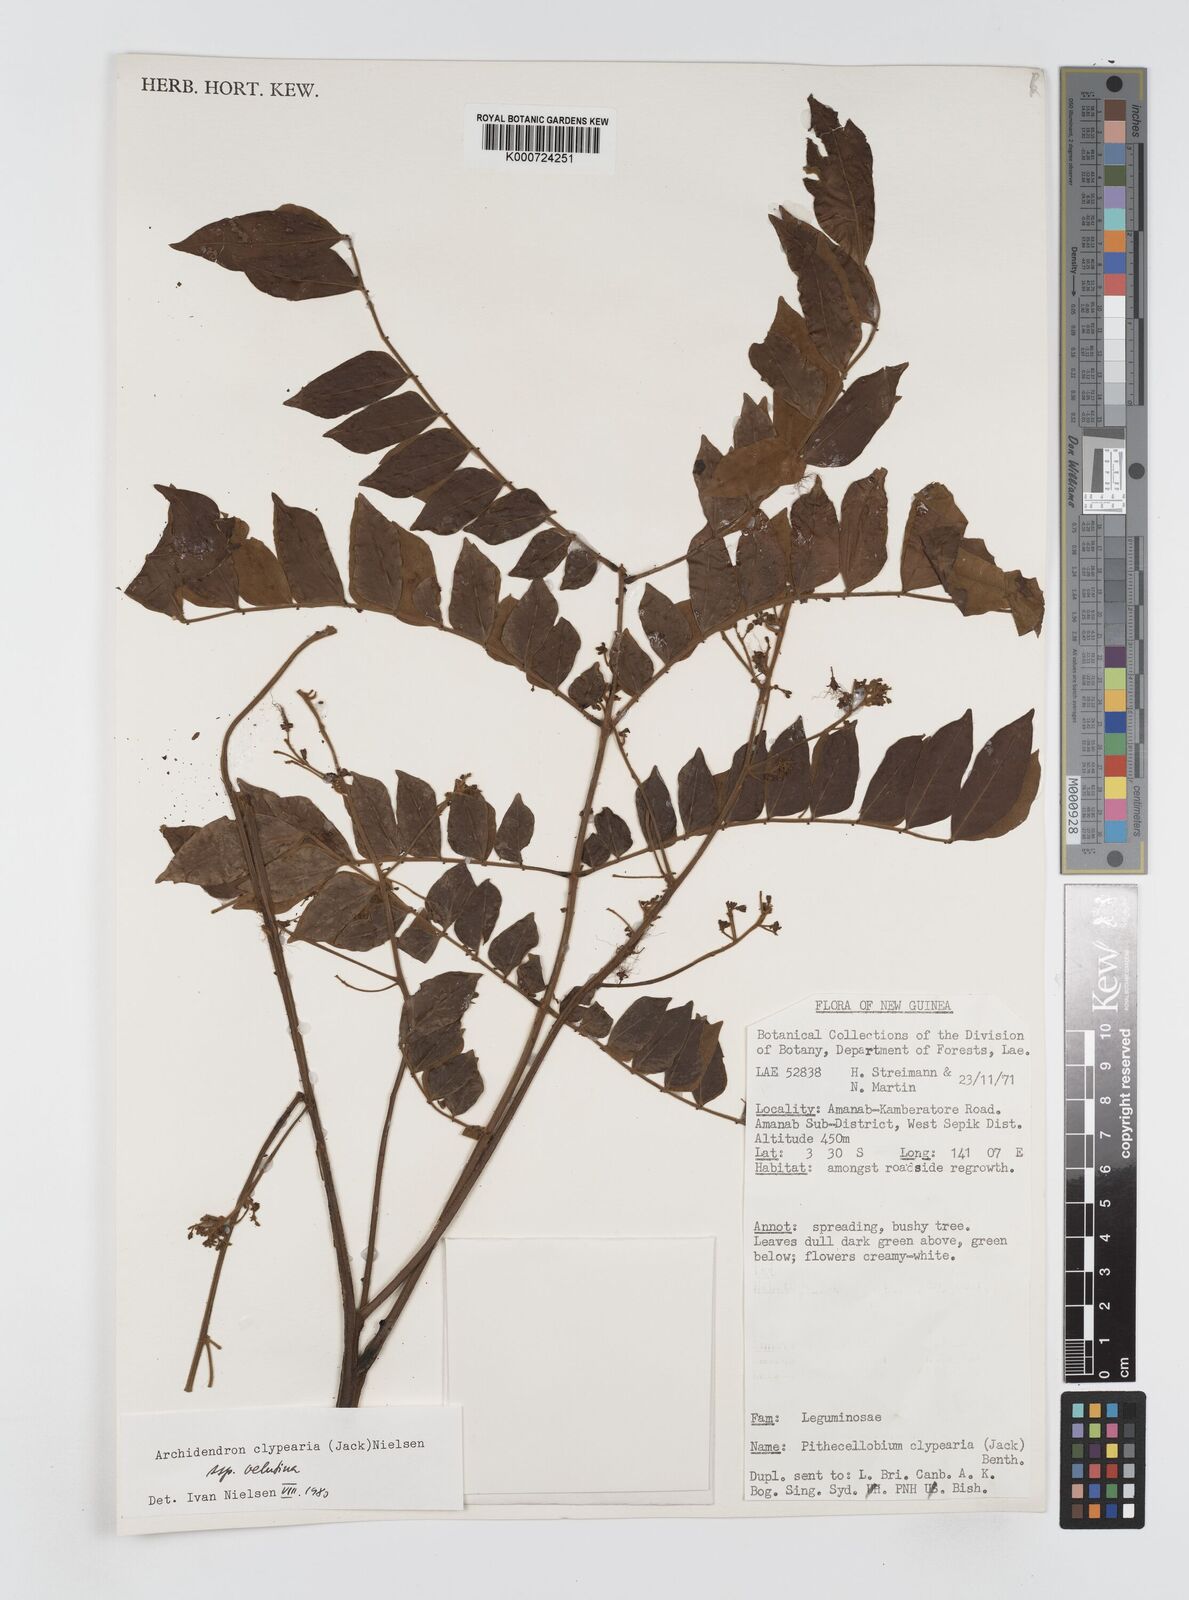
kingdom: Plantae
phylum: Tracheophyta
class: Magnoliopsida
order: Fabales
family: Fabaceae
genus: Archidendron
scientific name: Archidendron clypearia
